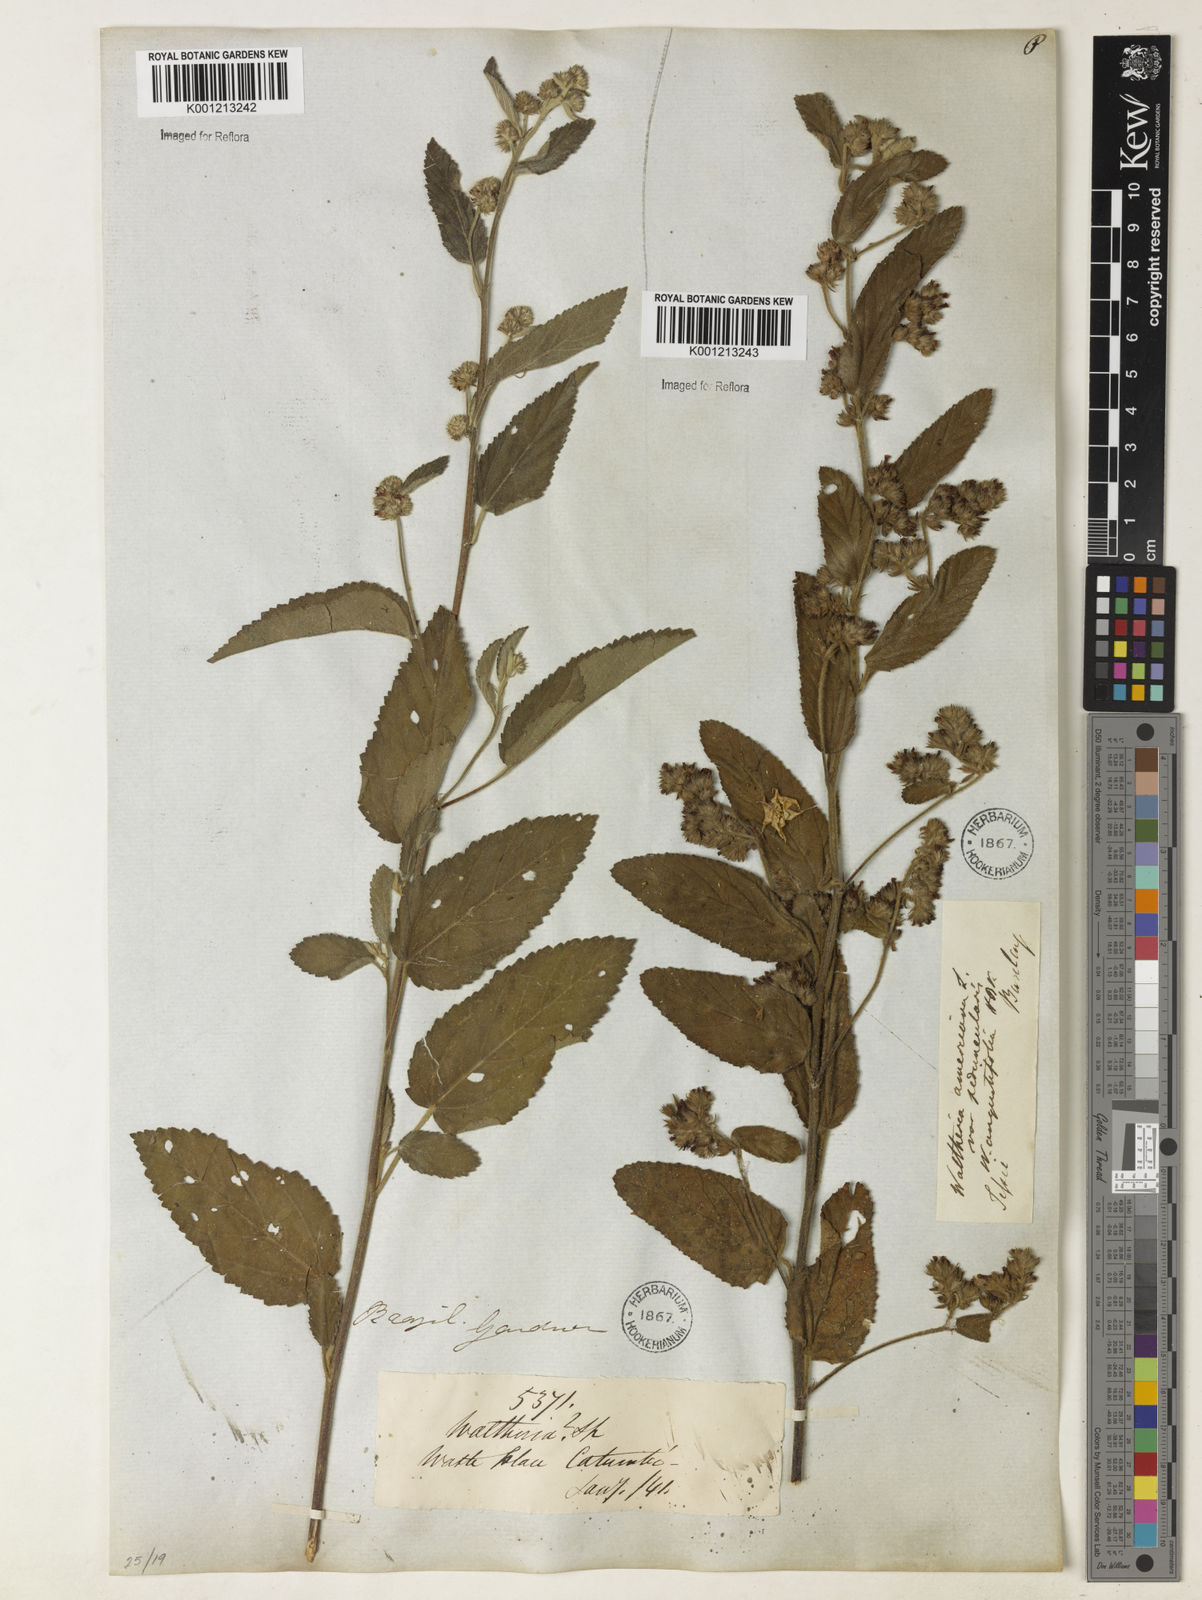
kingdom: Plantae
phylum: Tracheophyta
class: Magnoliopsida
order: Malvales
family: Malvaceae
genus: Waltheria
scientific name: Waltheria indica
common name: Leather-coat
